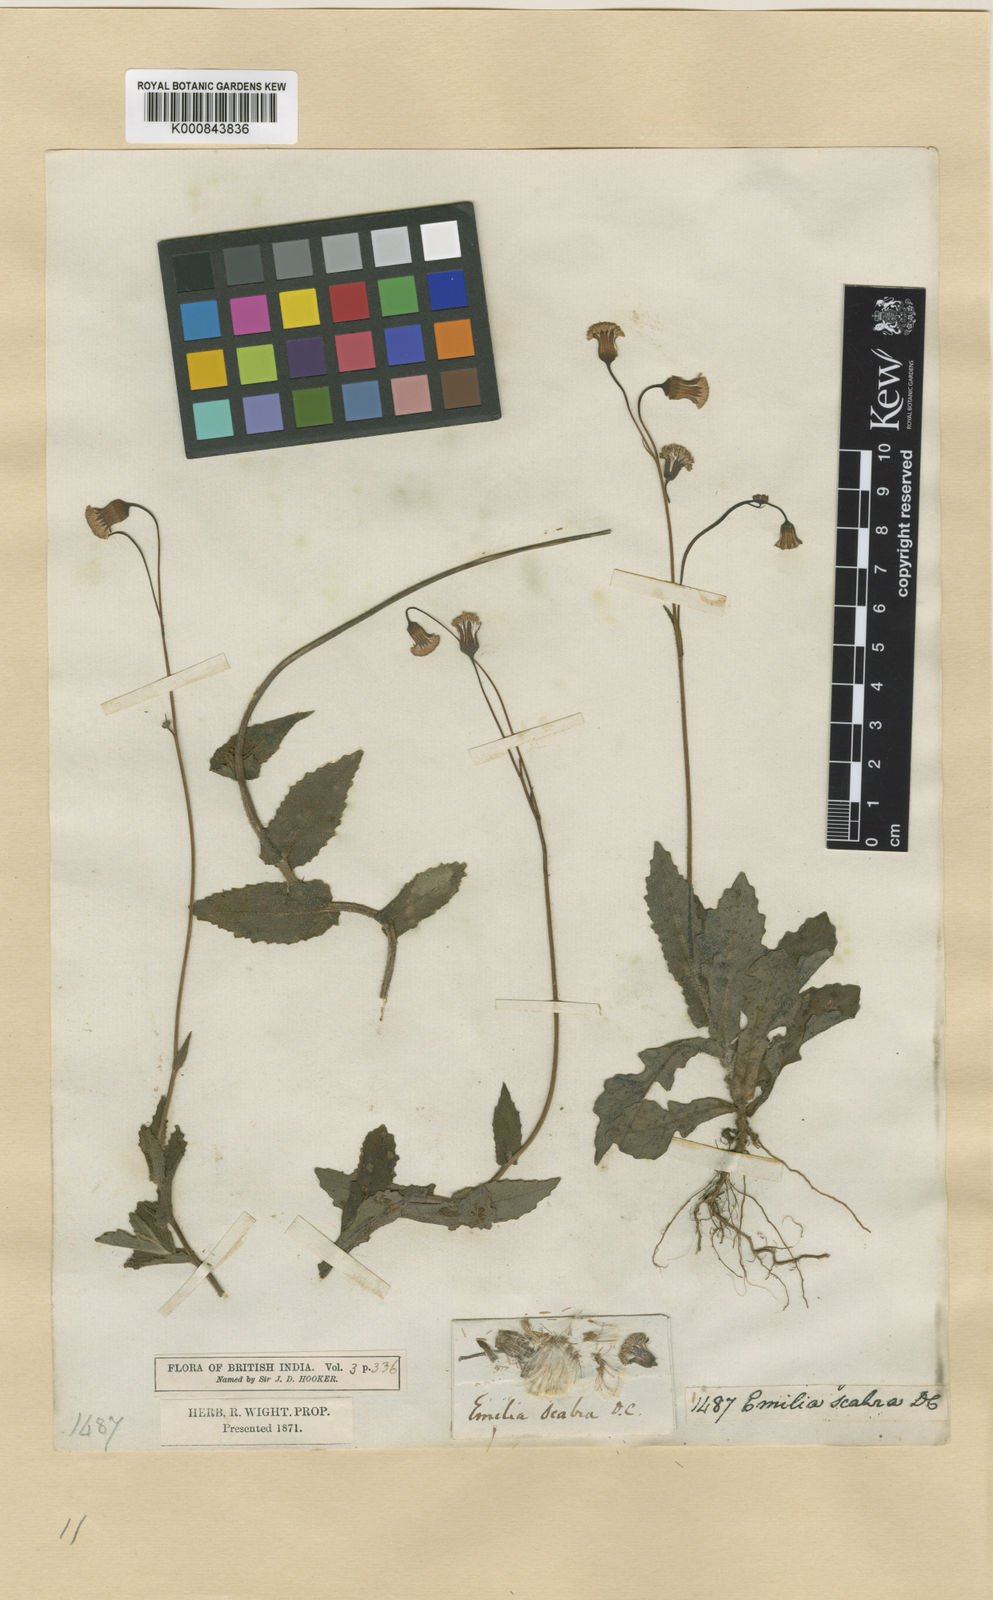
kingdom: Plantae
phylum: Tracheophyta
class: Magnoliopsida
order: Asterales
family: Asteraceae
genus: Emilia
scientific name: Emilia scabra
